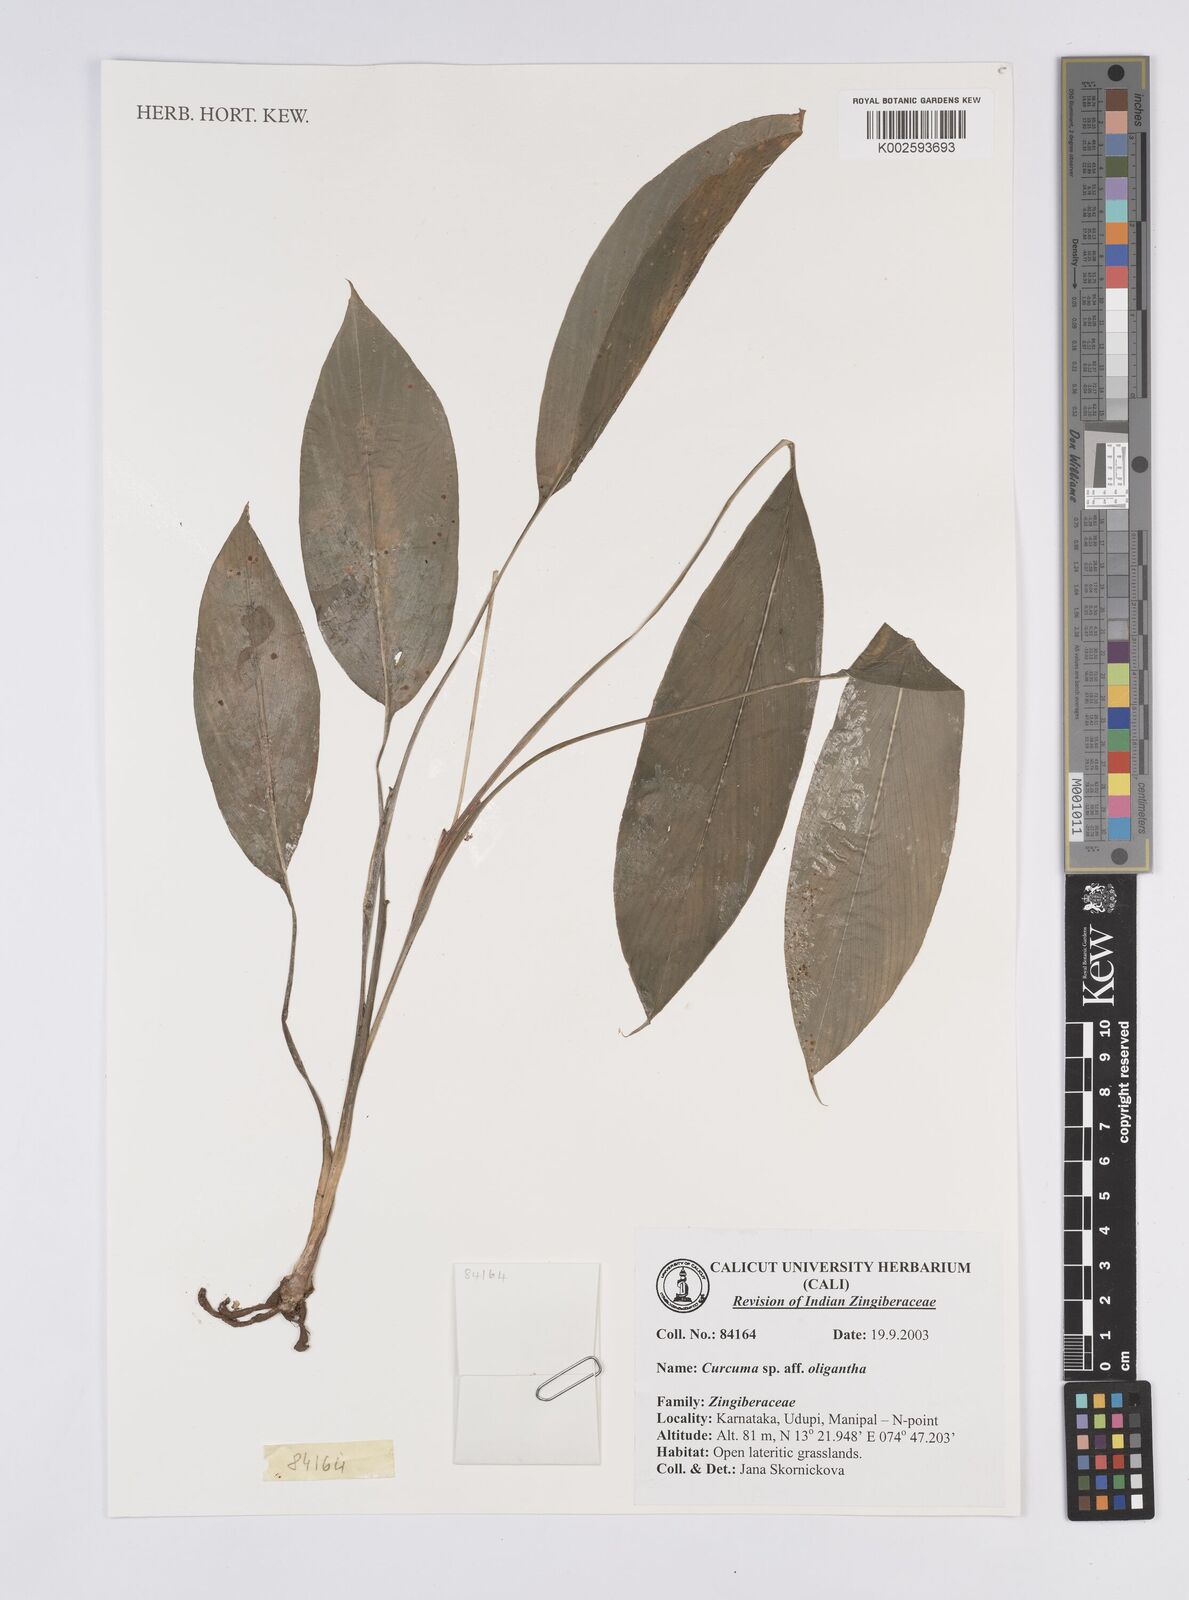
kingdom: Plantae
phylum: Tracheophyta
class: Liliopsida
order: Zingiberales
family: Zingiberaceae
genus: Curcuma
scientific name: Curcuma oligantha
